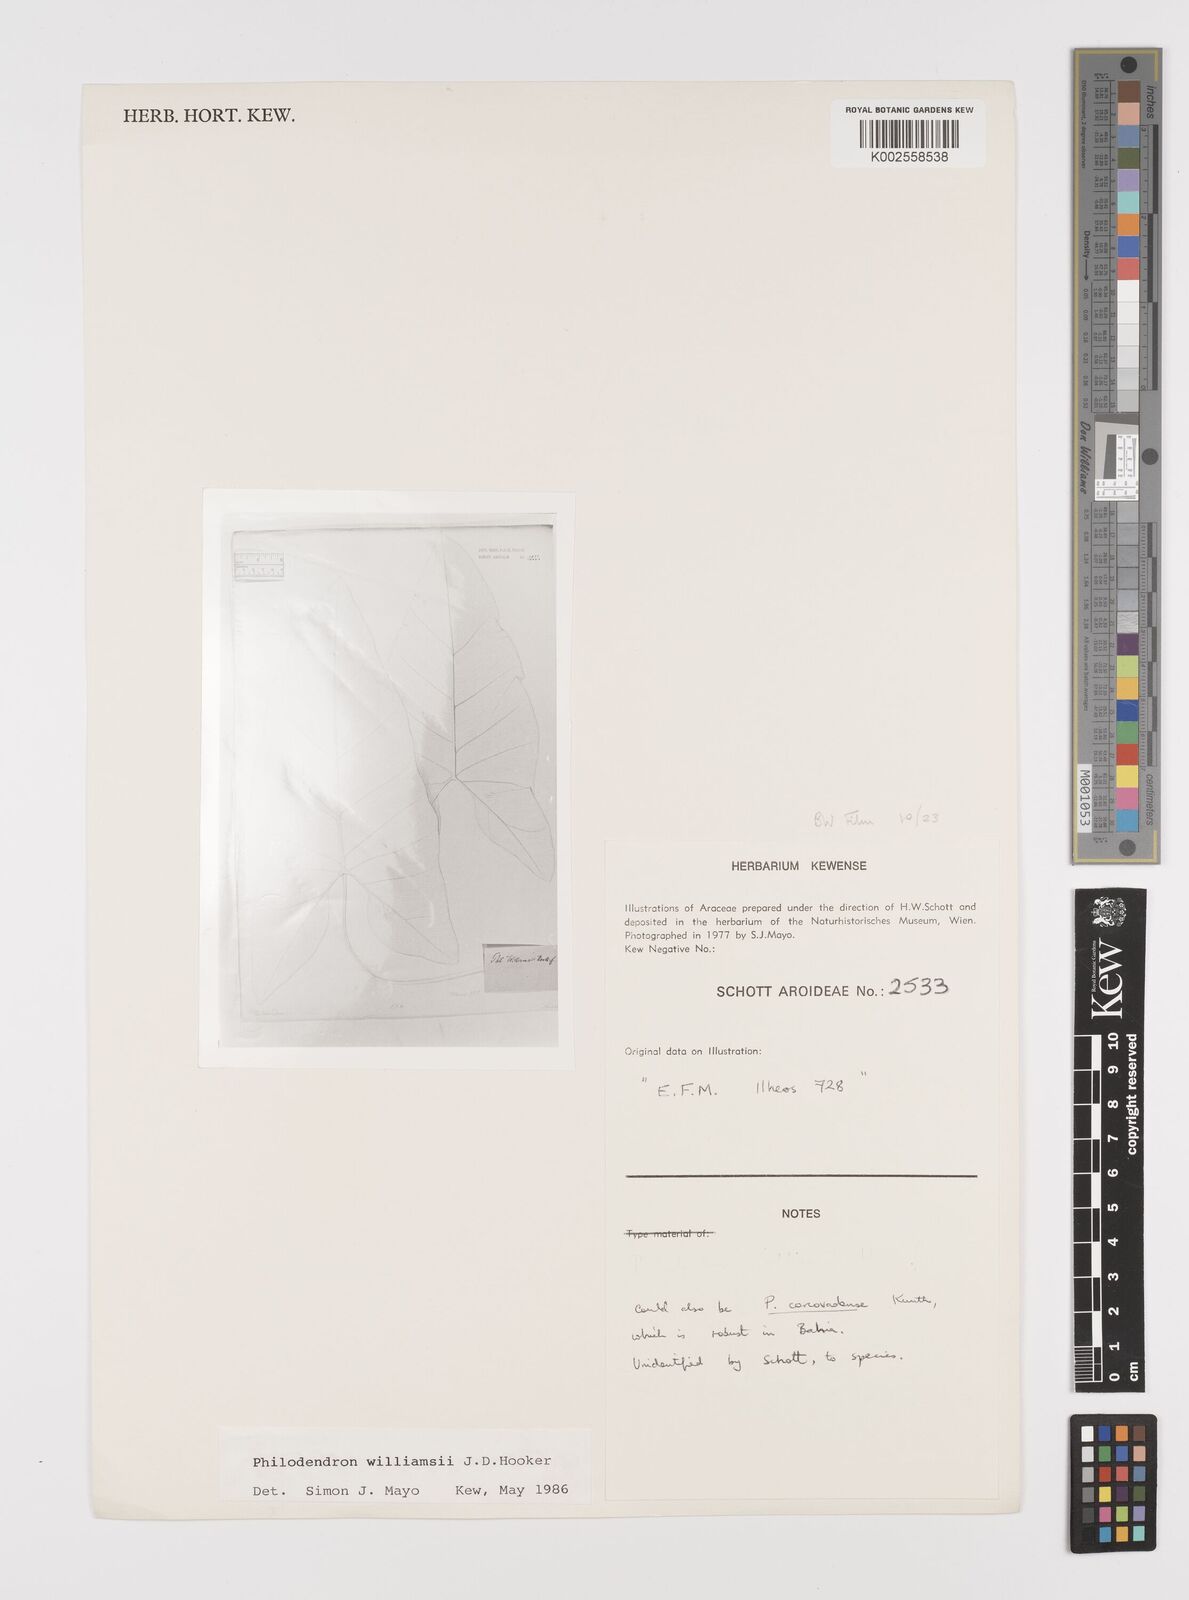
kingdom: Plantae
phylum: Tracheophyta
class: Liliopsida
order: Alismatales
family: Araceae
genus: Thaumatophyllum
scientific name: Thaumatophyllum williamsii
